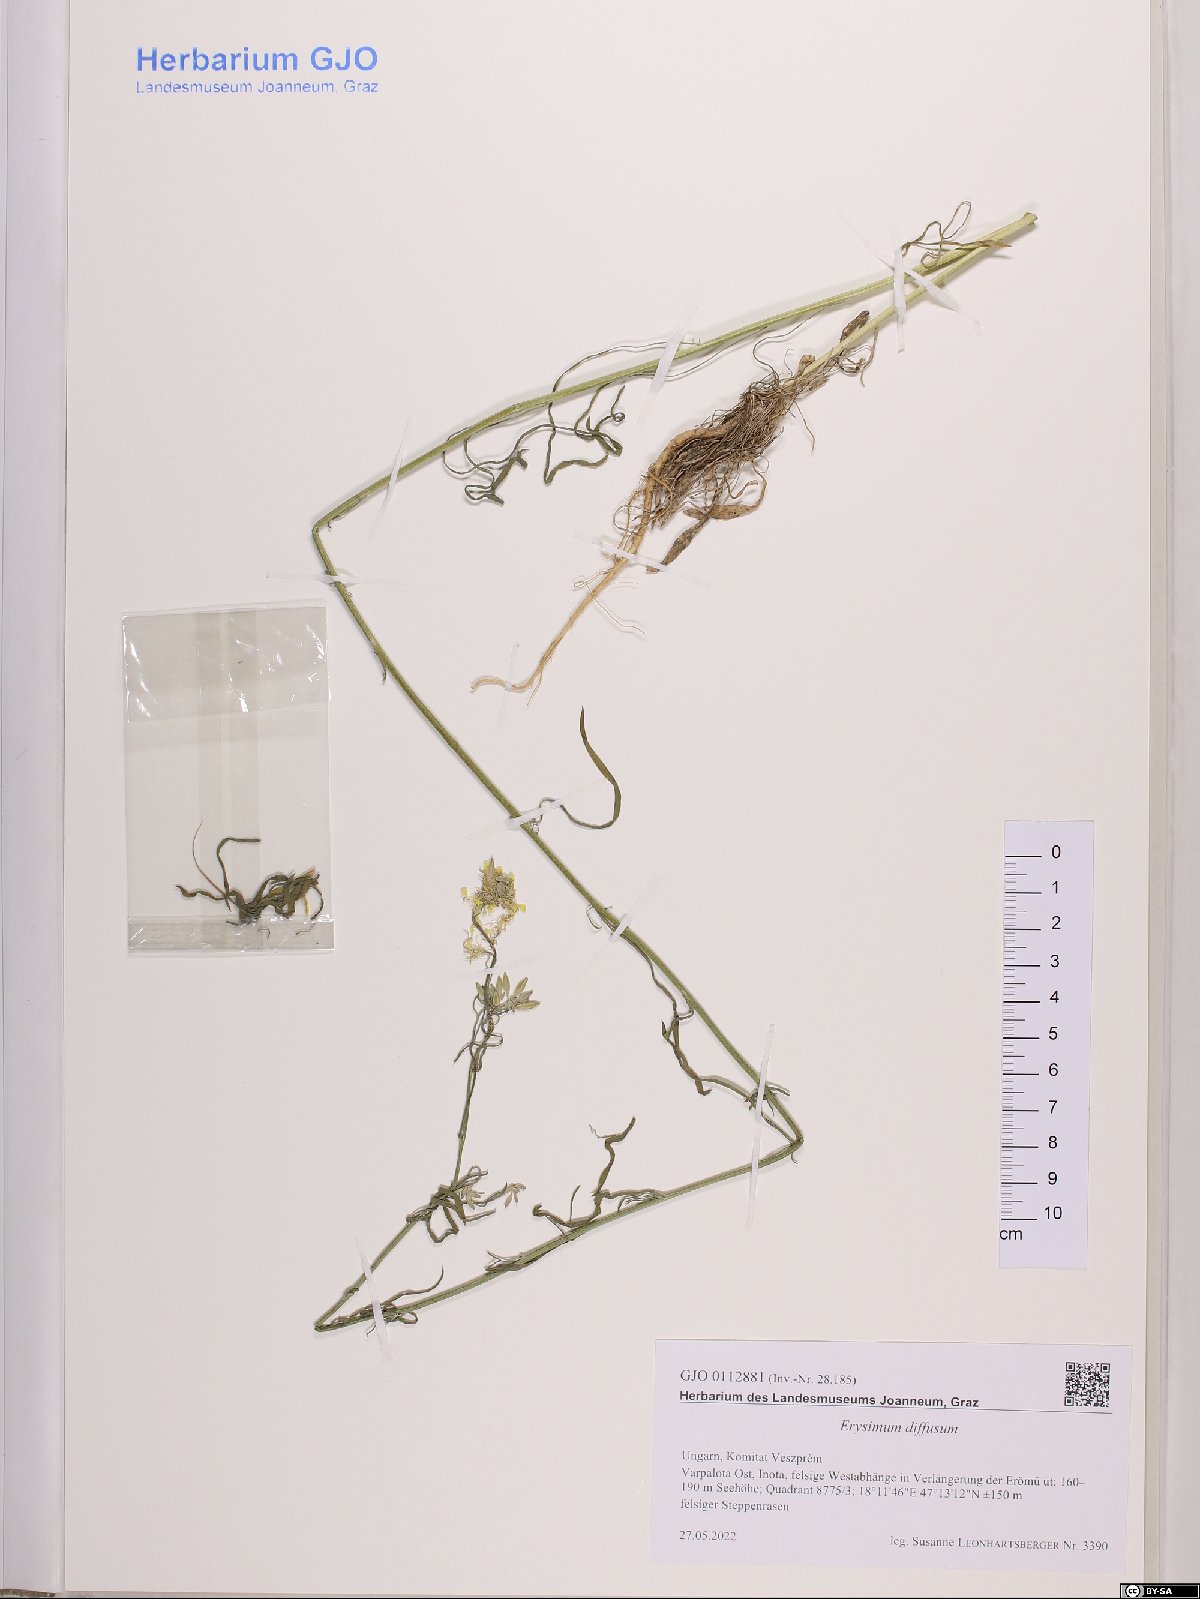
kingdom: Plantae
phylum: Tracheophyta
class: Magnoliopsida
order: Brassicales
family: Brassicaceae
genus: Erysimum
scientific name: Erysimum diffusum
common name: Diffuse wallflower
